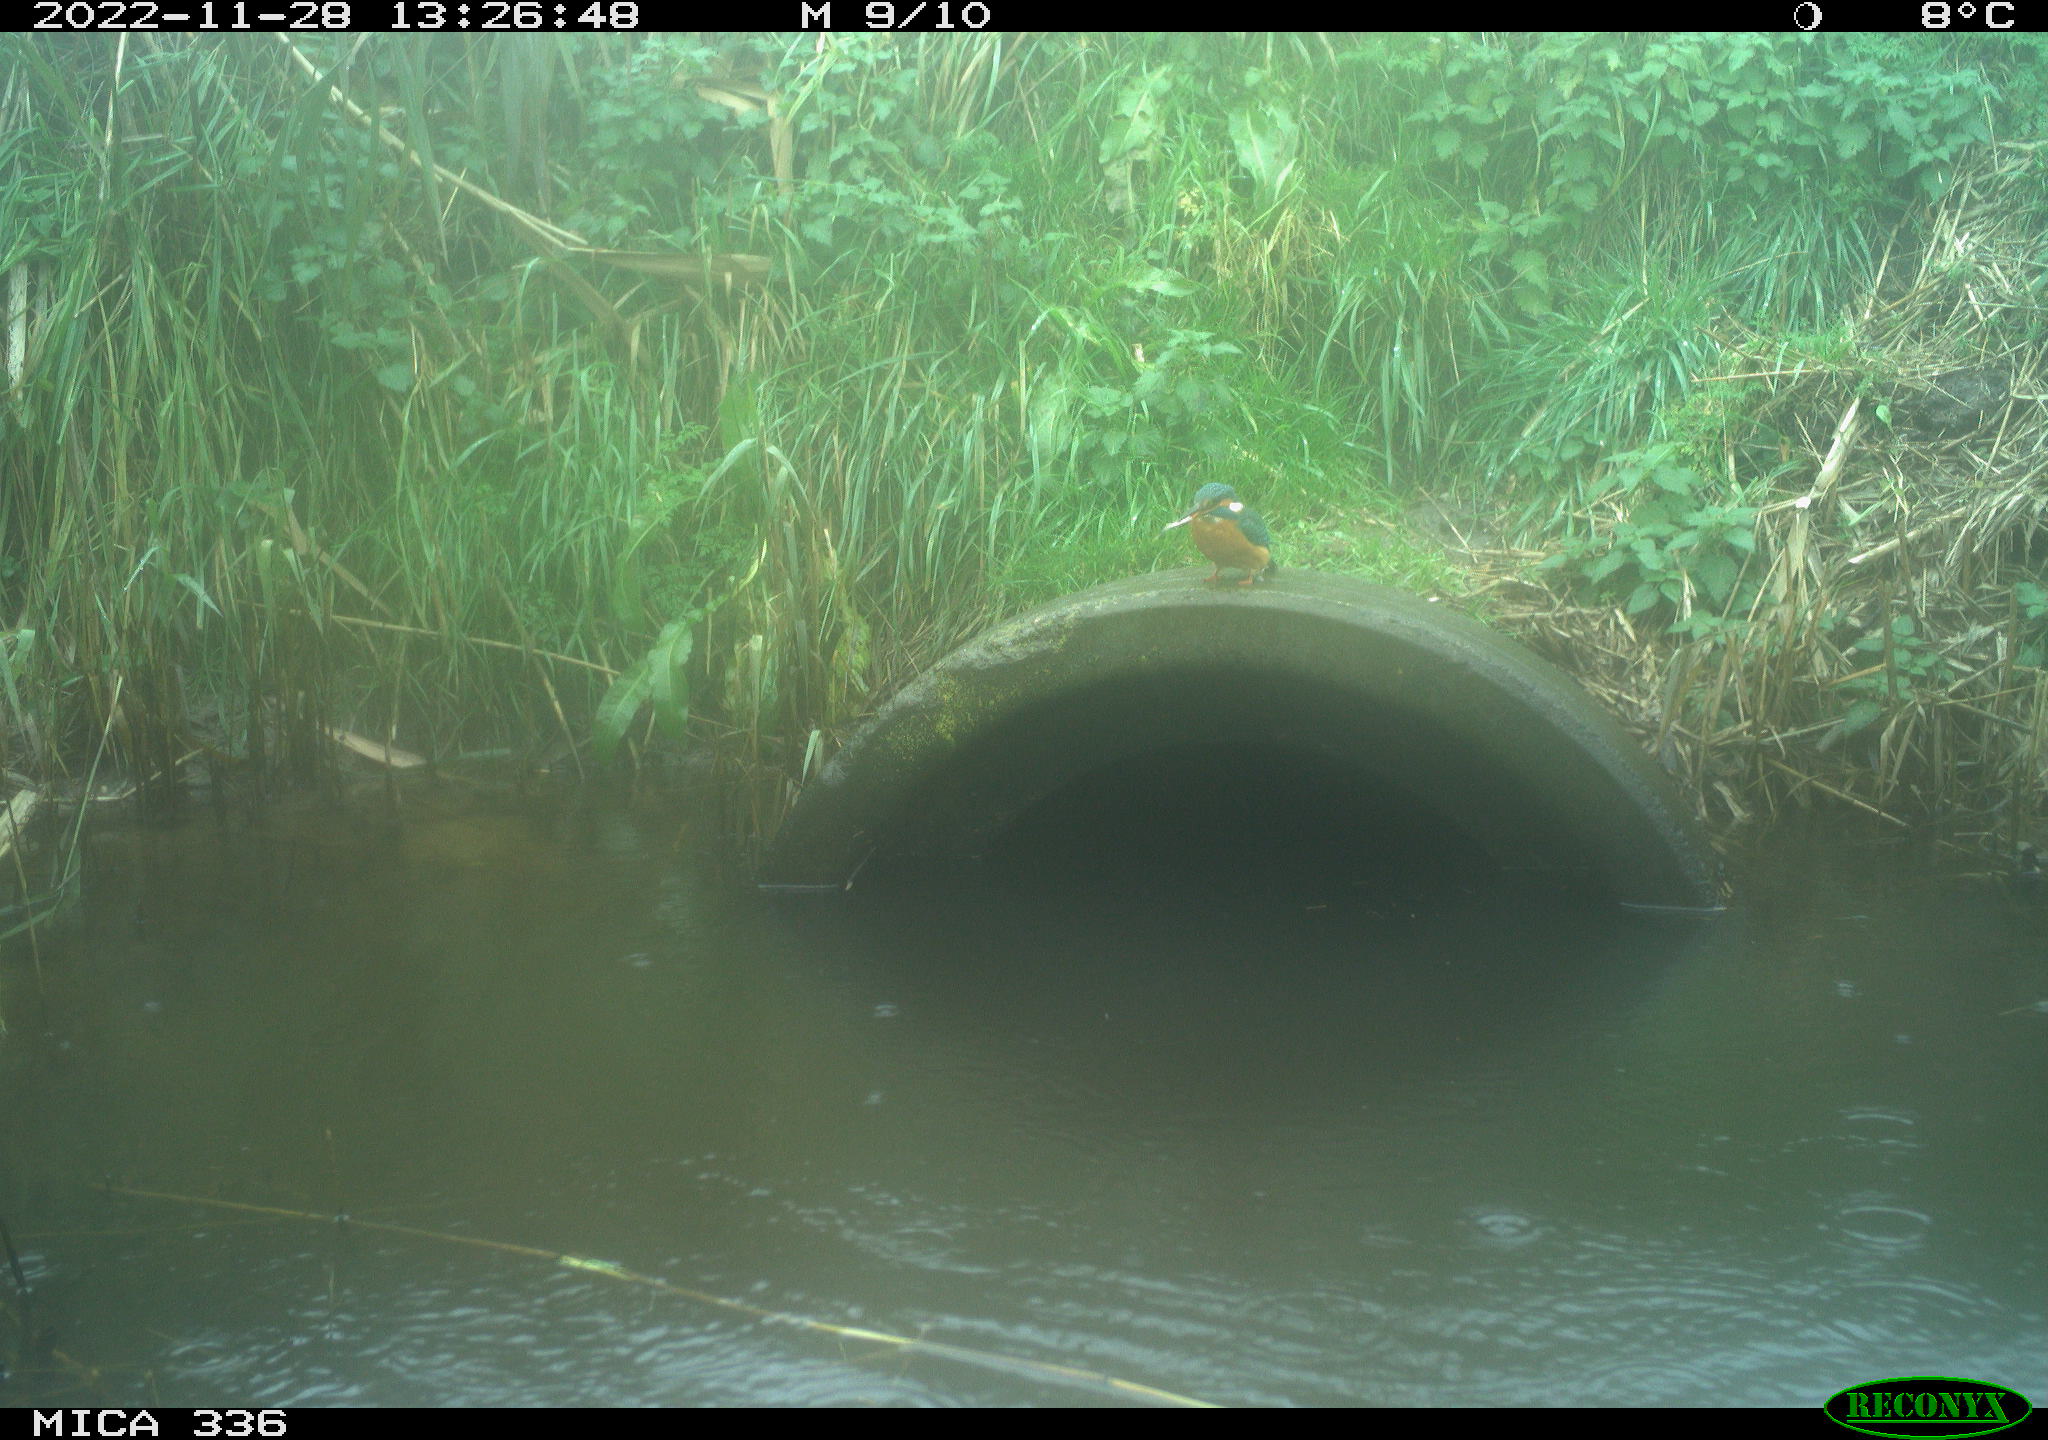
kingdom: Animalia
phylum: Chordata
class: Aves
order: Coraciiformes
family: Alcedinidae
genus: Alcedo
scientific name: Alcedo atthis
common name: Common kingfisher
